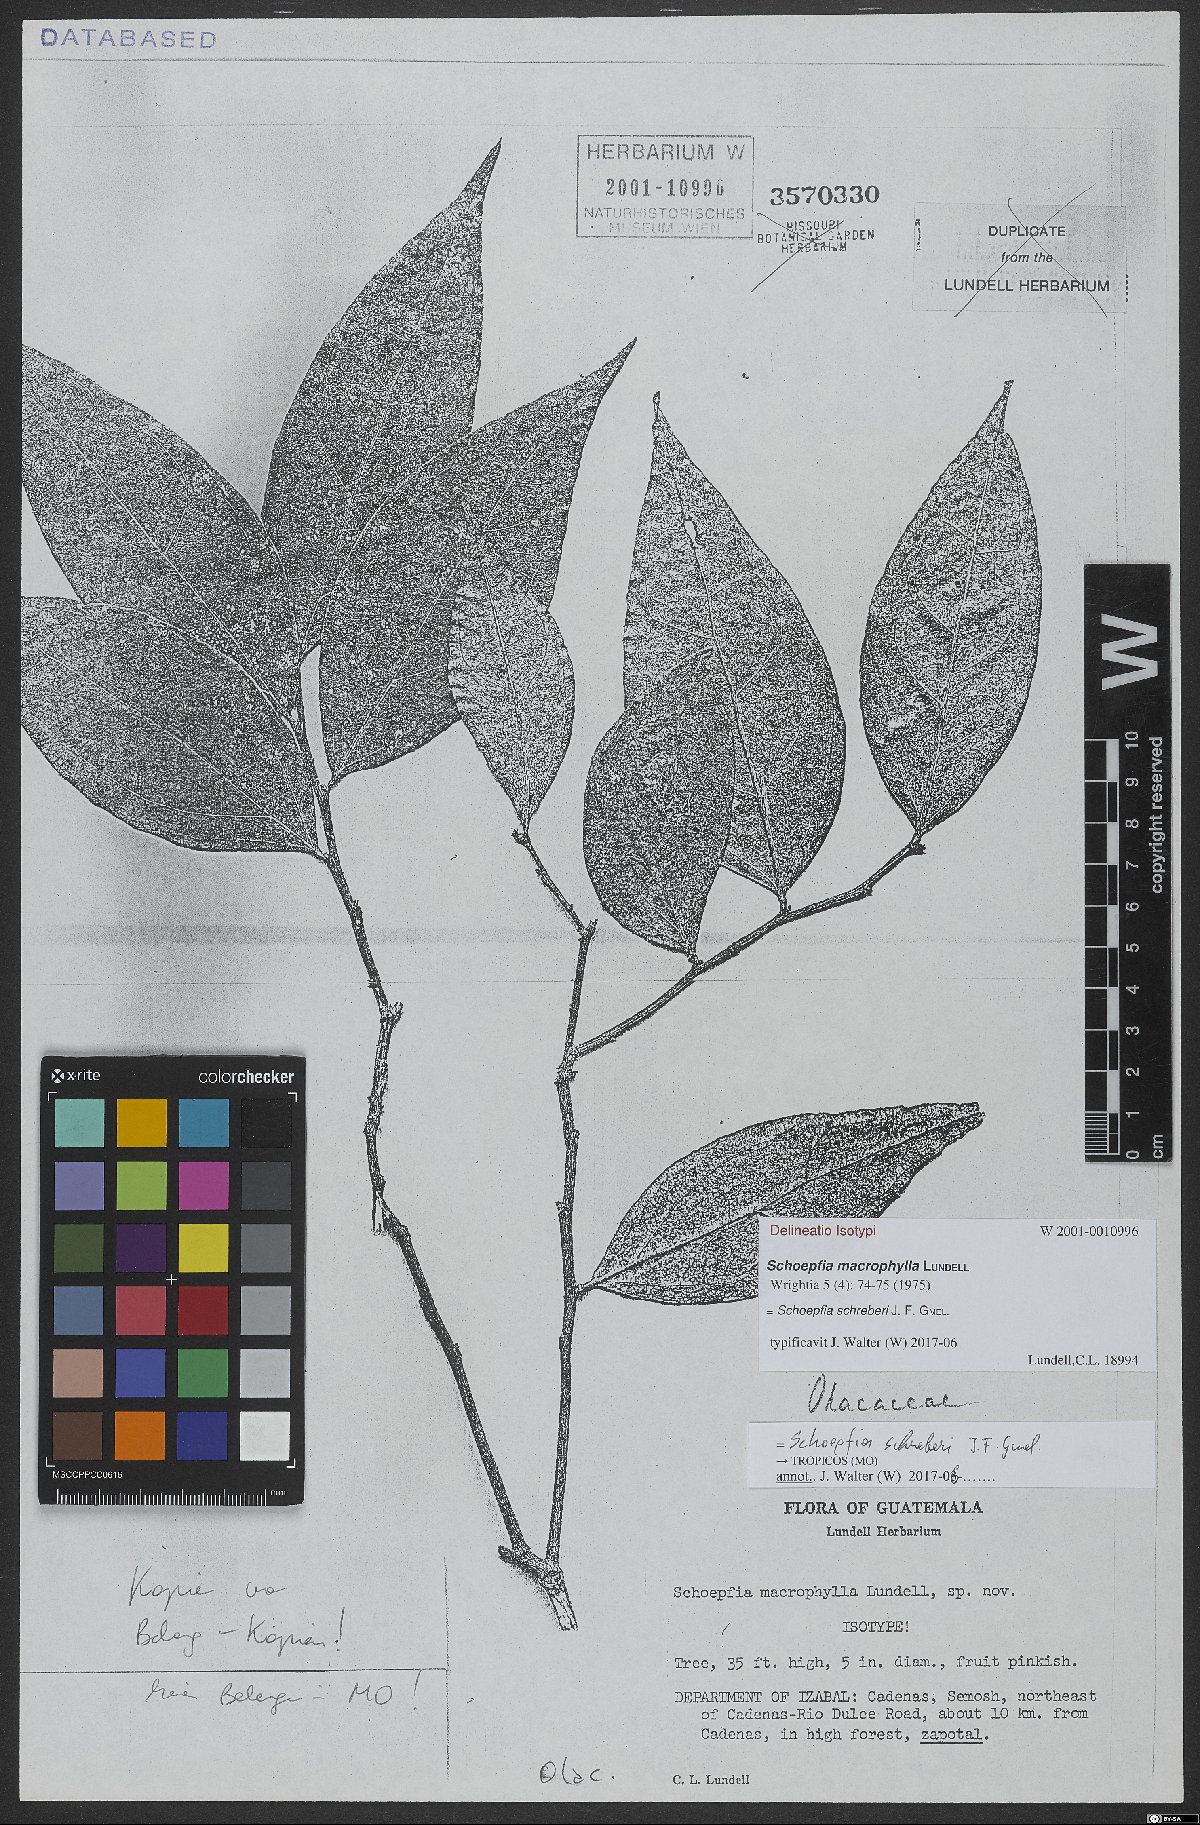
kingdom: Plantae
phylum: Tracheophyta
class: Magnoliopsida
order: Santalales
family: Schoepfiaceae
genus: Schoepfia
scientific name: Schoepfia schreberi
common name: Gulf graytwig
